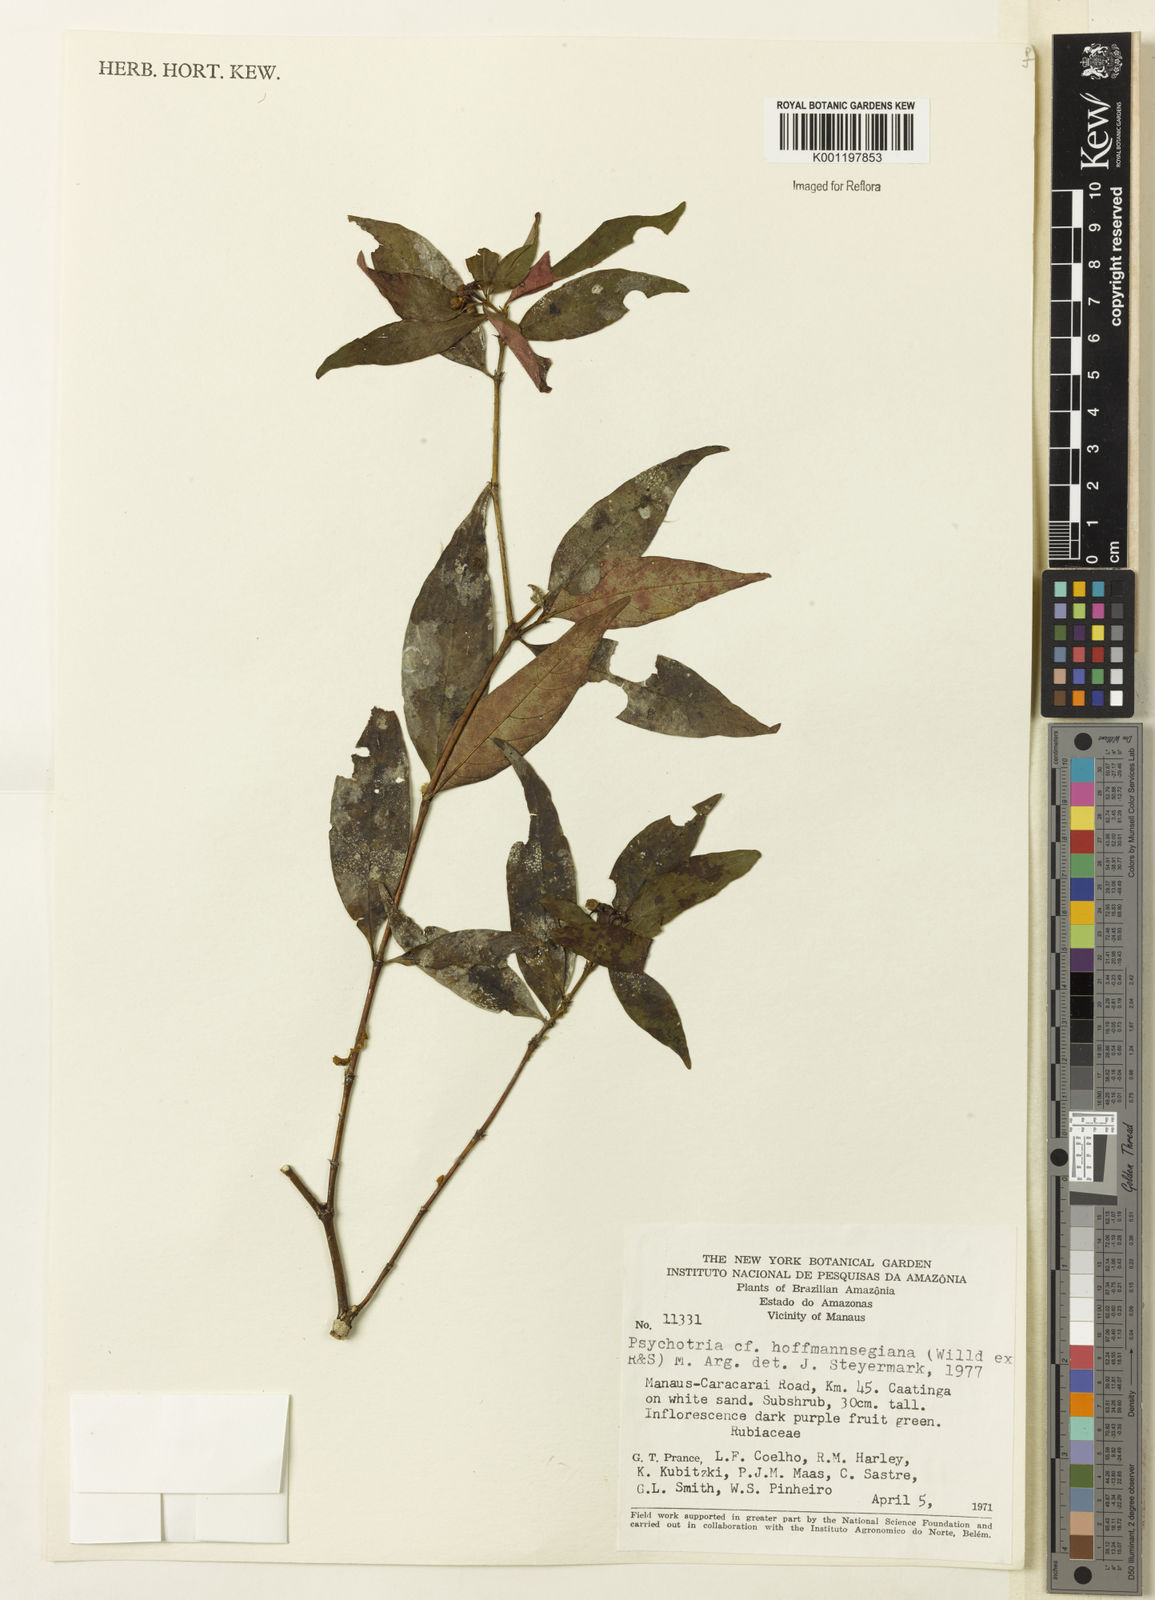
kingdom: Plantae
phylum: Tracheophyta
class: Magnoliopsida
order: Gentianales
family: Rubiaceae
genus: Psychotria
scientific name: Psychotria
